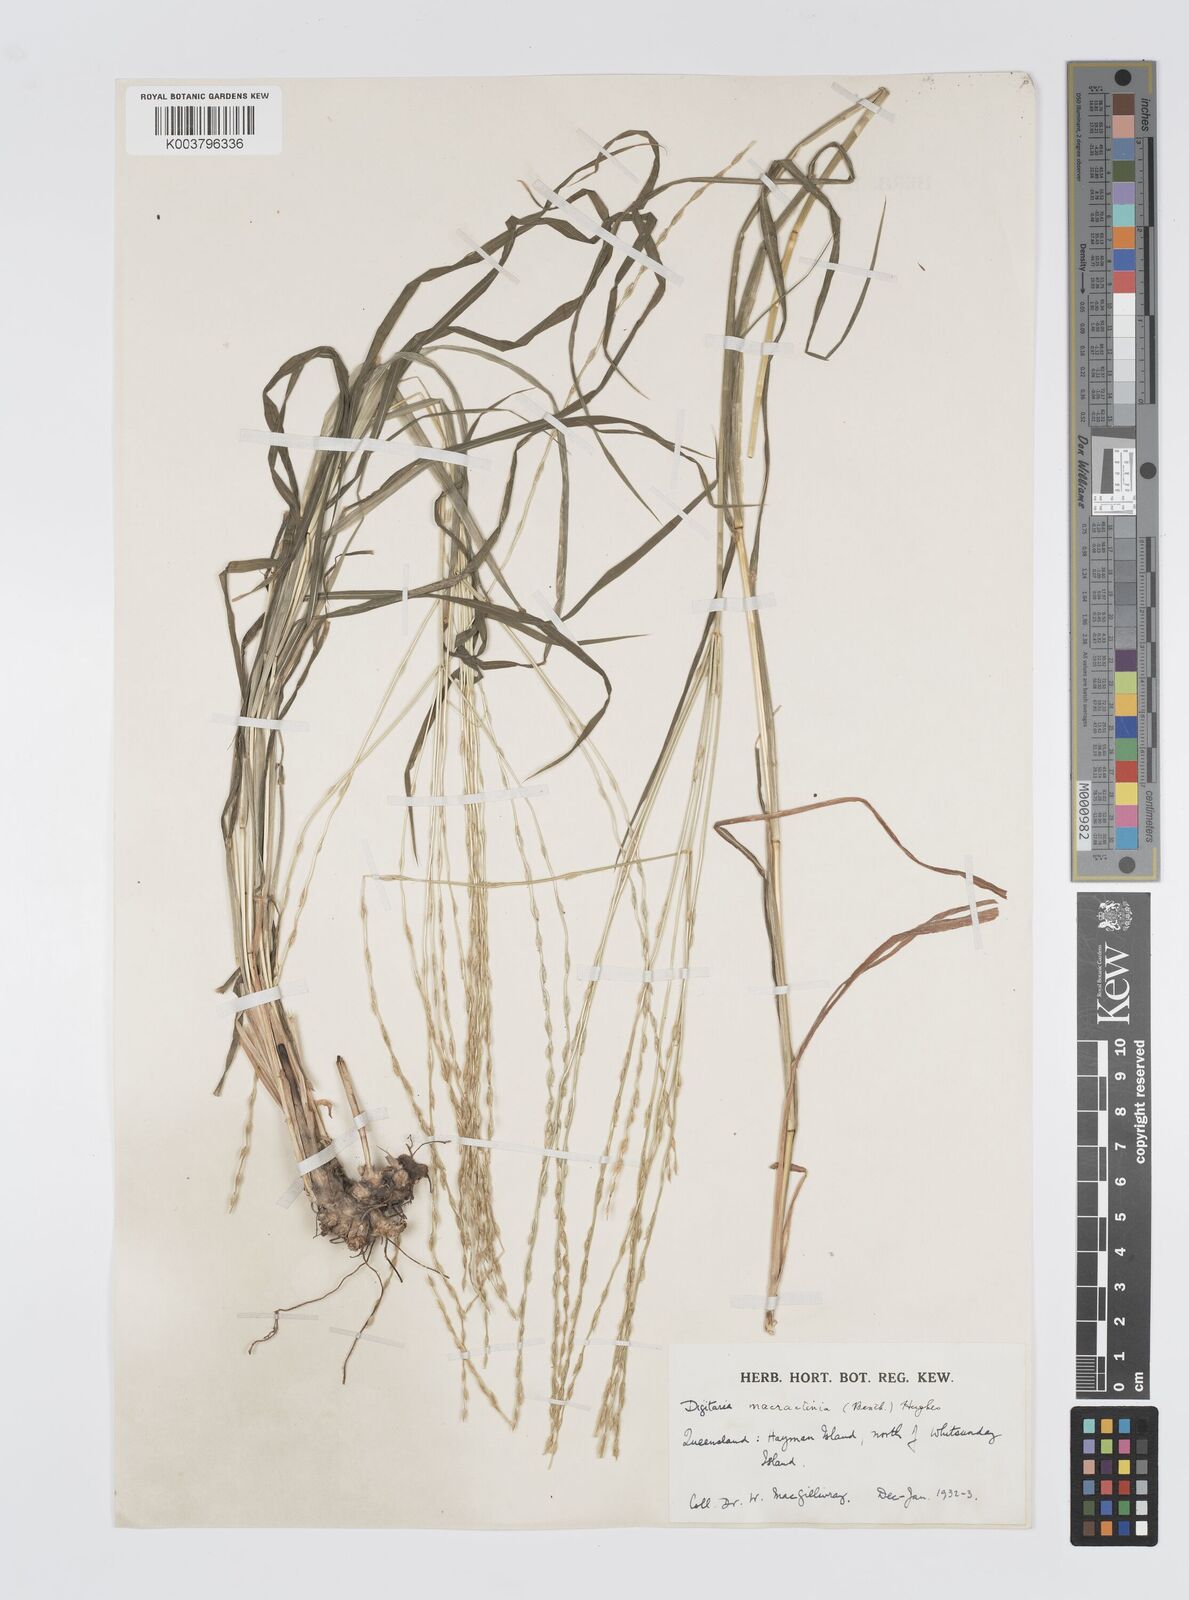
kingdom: Plantae
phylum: Tracheophyta
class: Liliopsida
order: Poales
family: Poaceae
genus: Digitaria
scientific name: Digitaria spec
